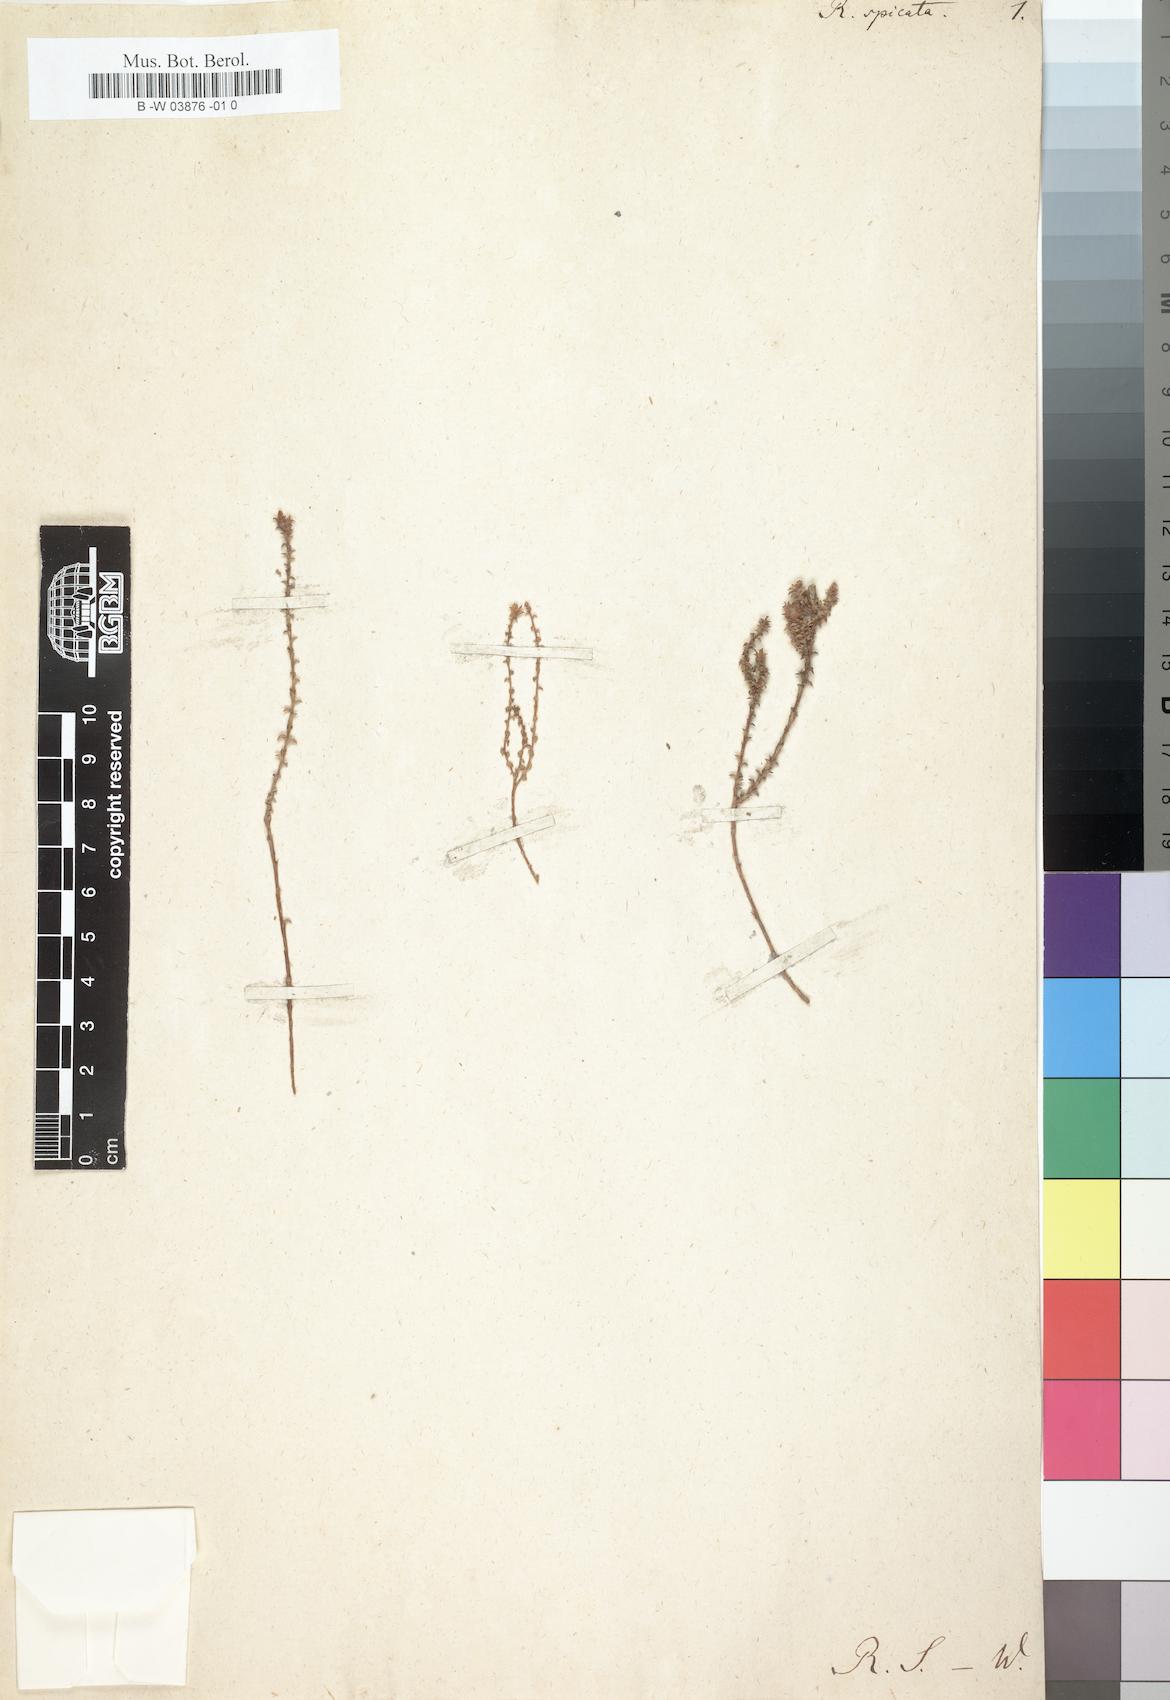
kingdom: Plantae
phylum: Tracheophyta
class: Magnoliopsida
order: Asterales
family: Campanulaceae
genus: Roella
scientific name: Roella spicata
